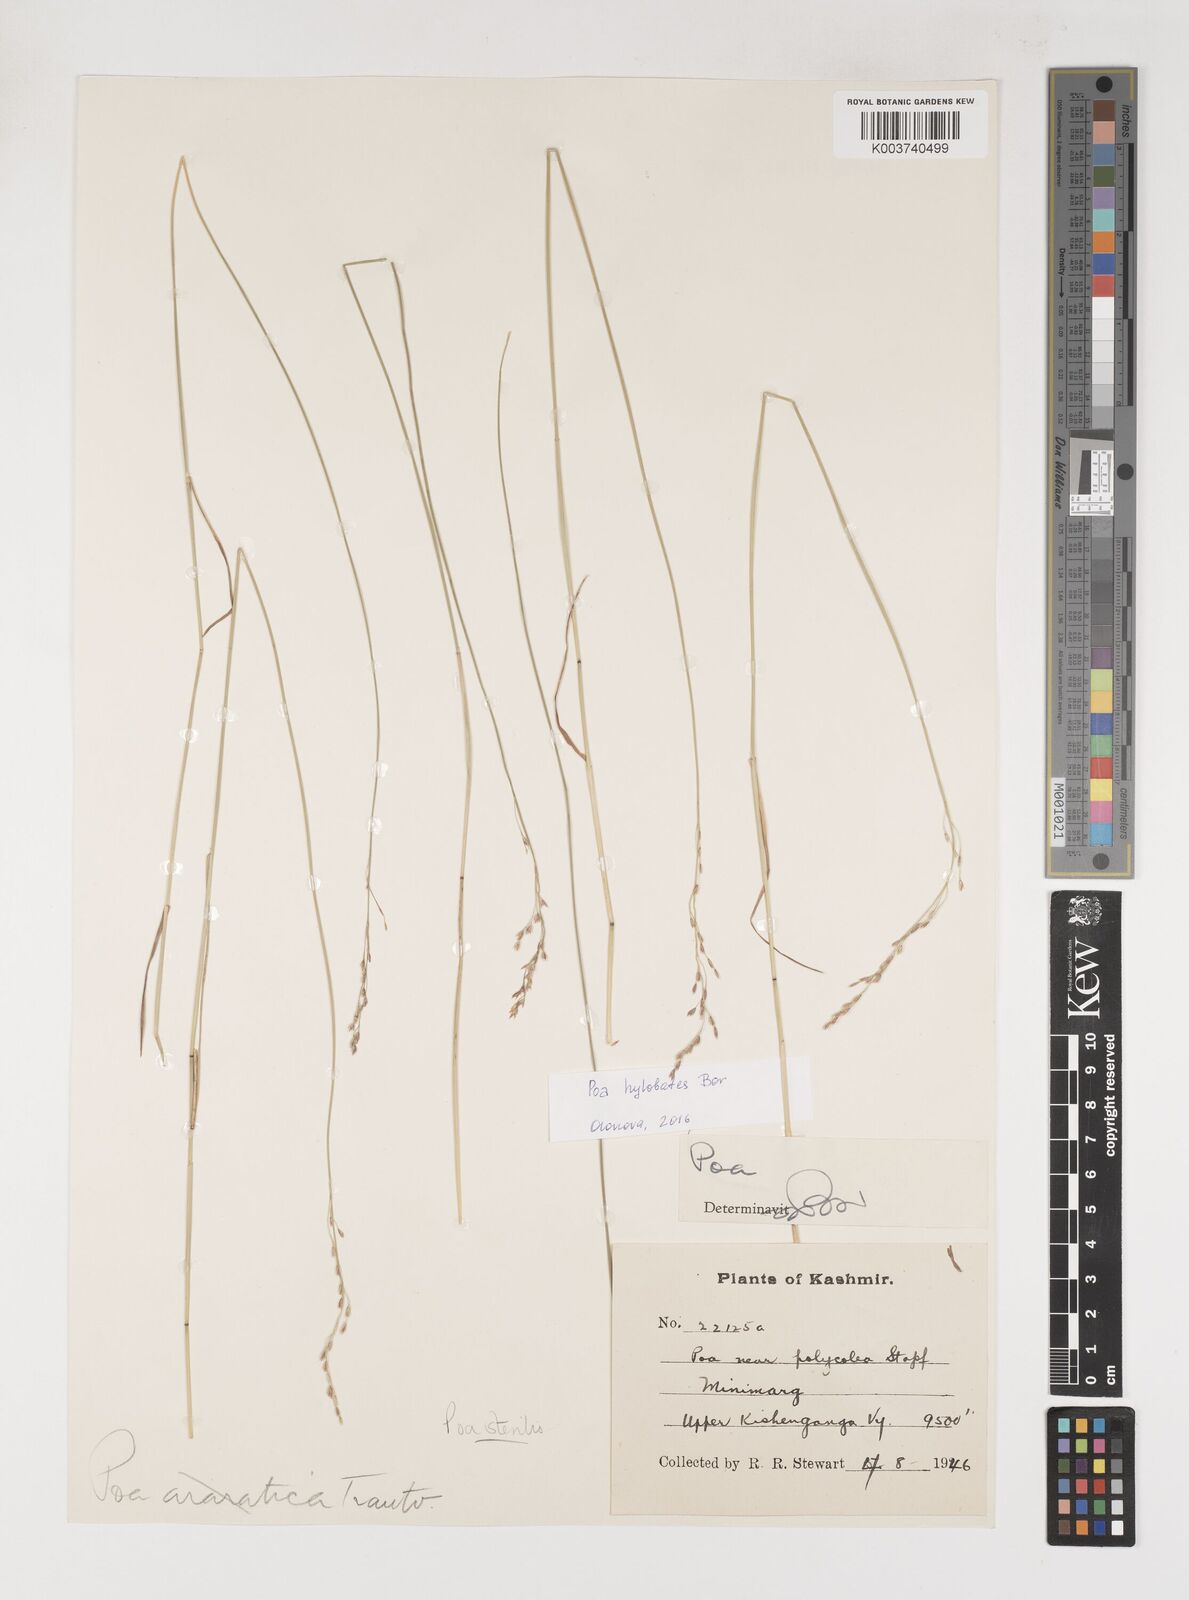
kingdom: Plantae
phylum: Tracheophyta
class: Liliopsida
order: Poales
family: Poaceae
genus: Poa
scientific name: Poa sterilis
